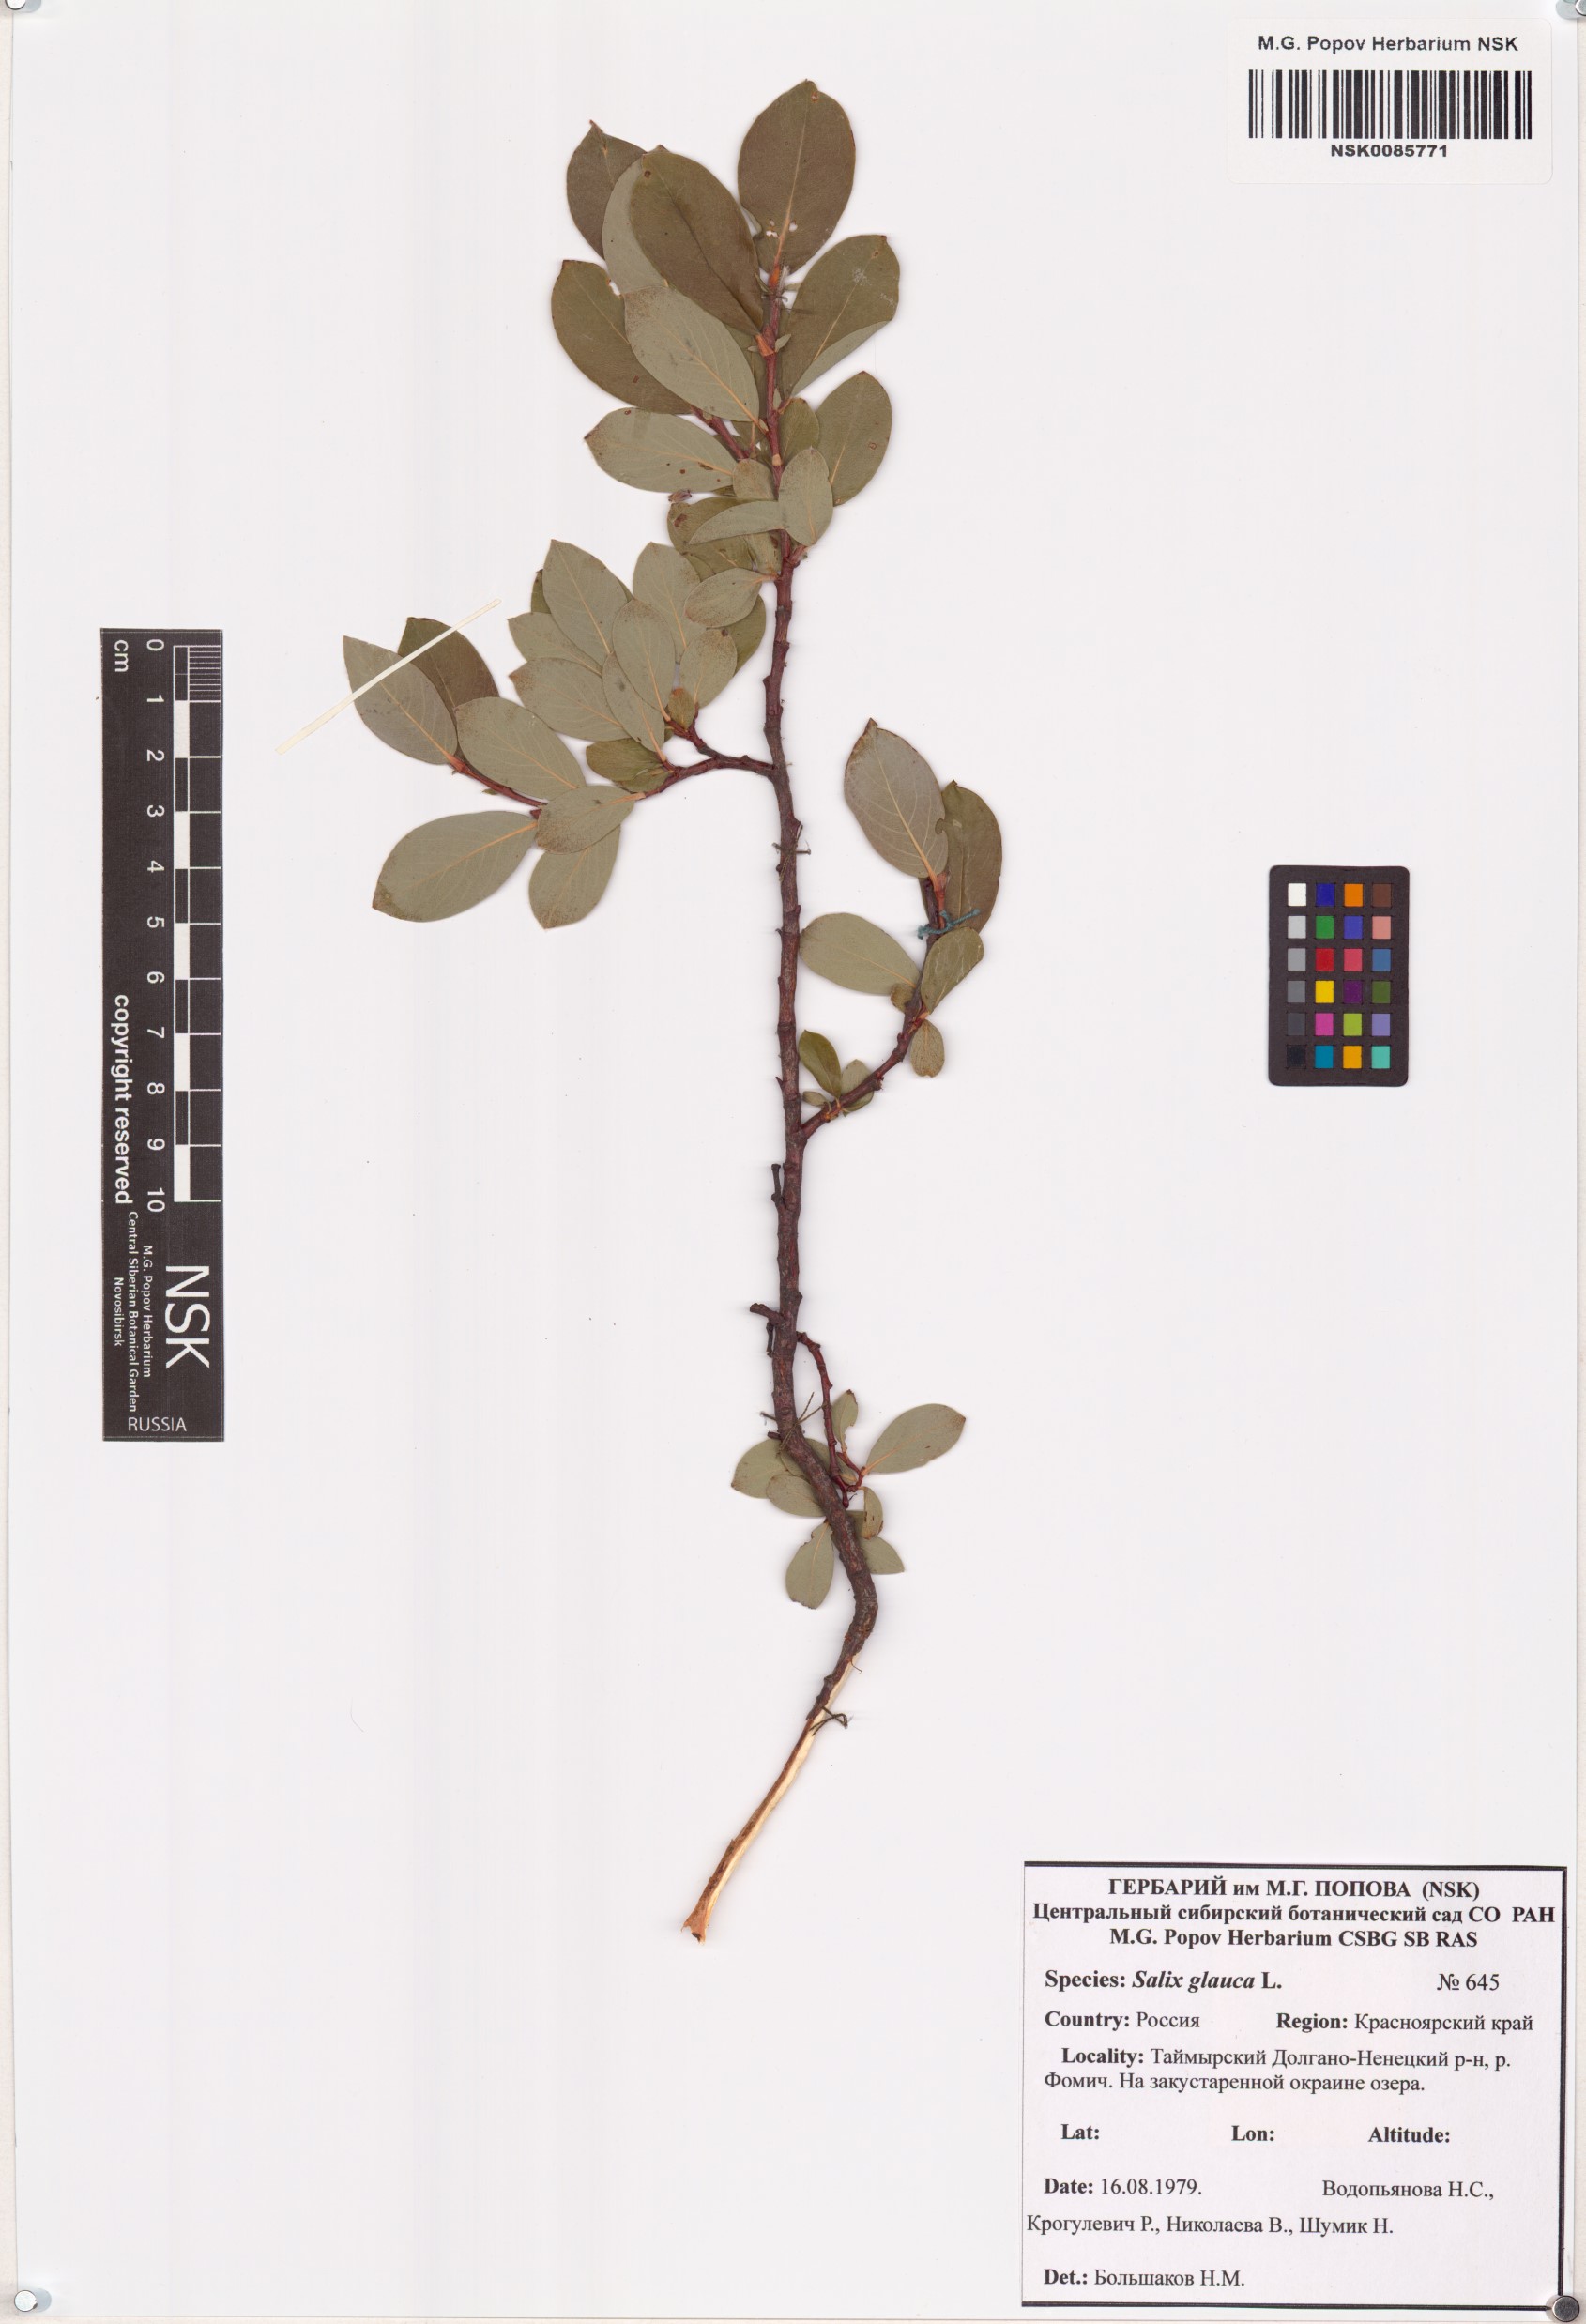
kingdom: Plantae
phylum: Tracheophyta
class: Magnoliopsida
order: Malpighiales
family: Salicaceae
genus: Salix
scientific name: Salix glauca
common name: Glaucous willow
